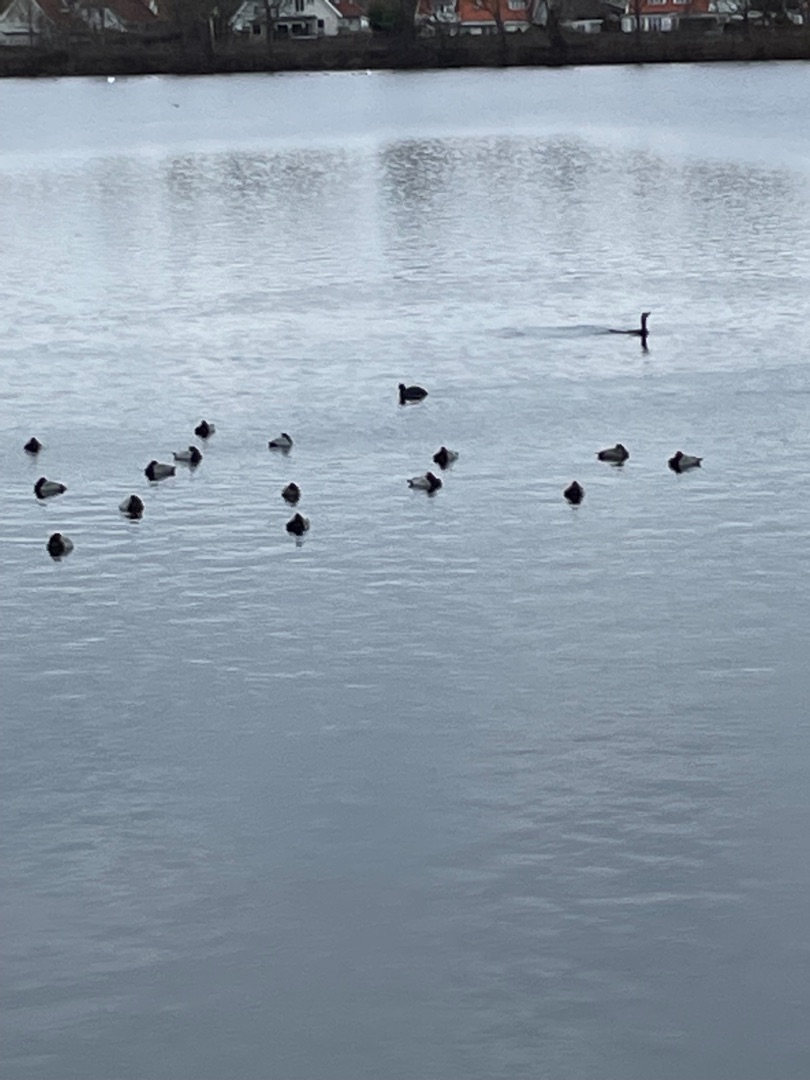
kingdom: Animalia
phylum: Chordata
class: Aves
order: Anseriformes
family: Anatidae
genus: Aythya
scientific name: Aythya ferina
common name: Taffeland
